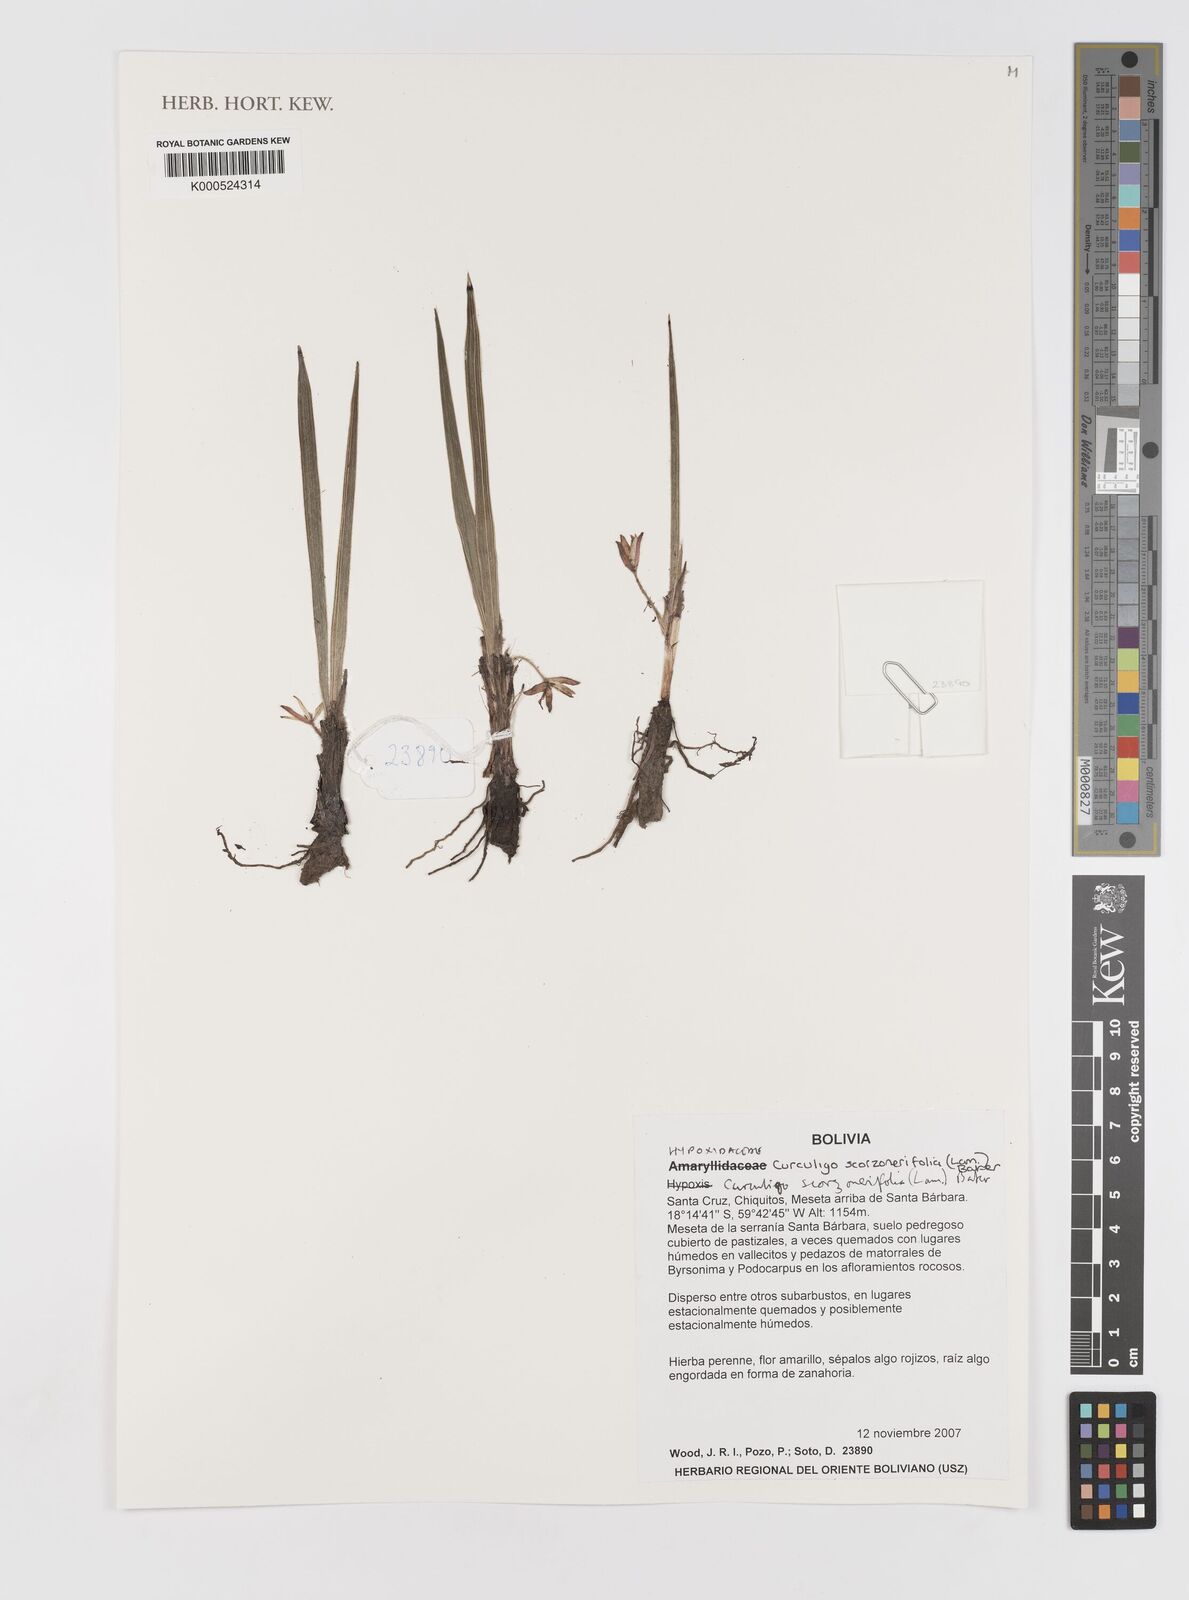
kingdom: Plantae
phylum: Tracheophyta
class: Liliopsida
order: Dioscoreales
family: Burmanniaceae
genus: Burmannia
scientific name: Burmannia capitata
